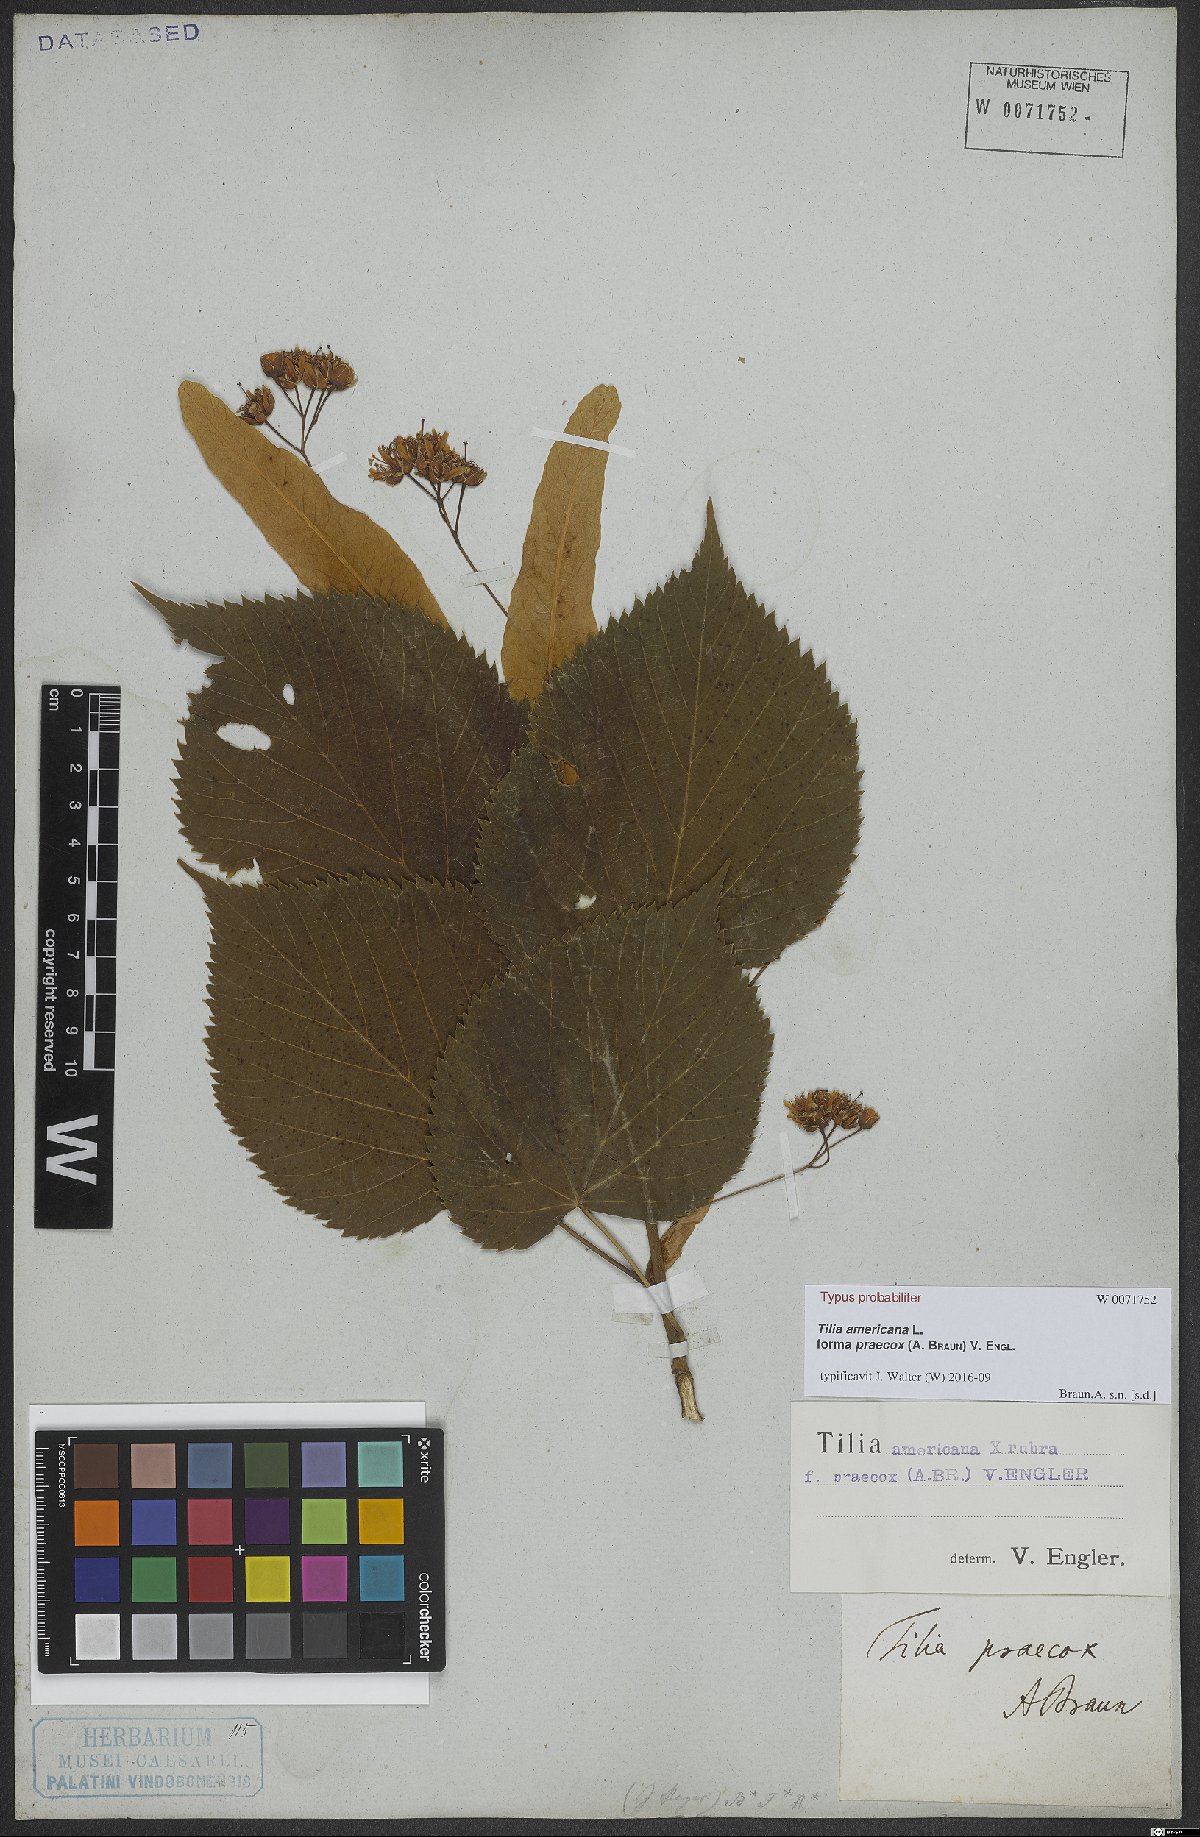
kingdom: Plantae
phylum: Tracheophyta
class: Magnoliopsida
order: Malvales
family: Malvaceae
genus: Tilia
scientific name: Tilia flaccida
